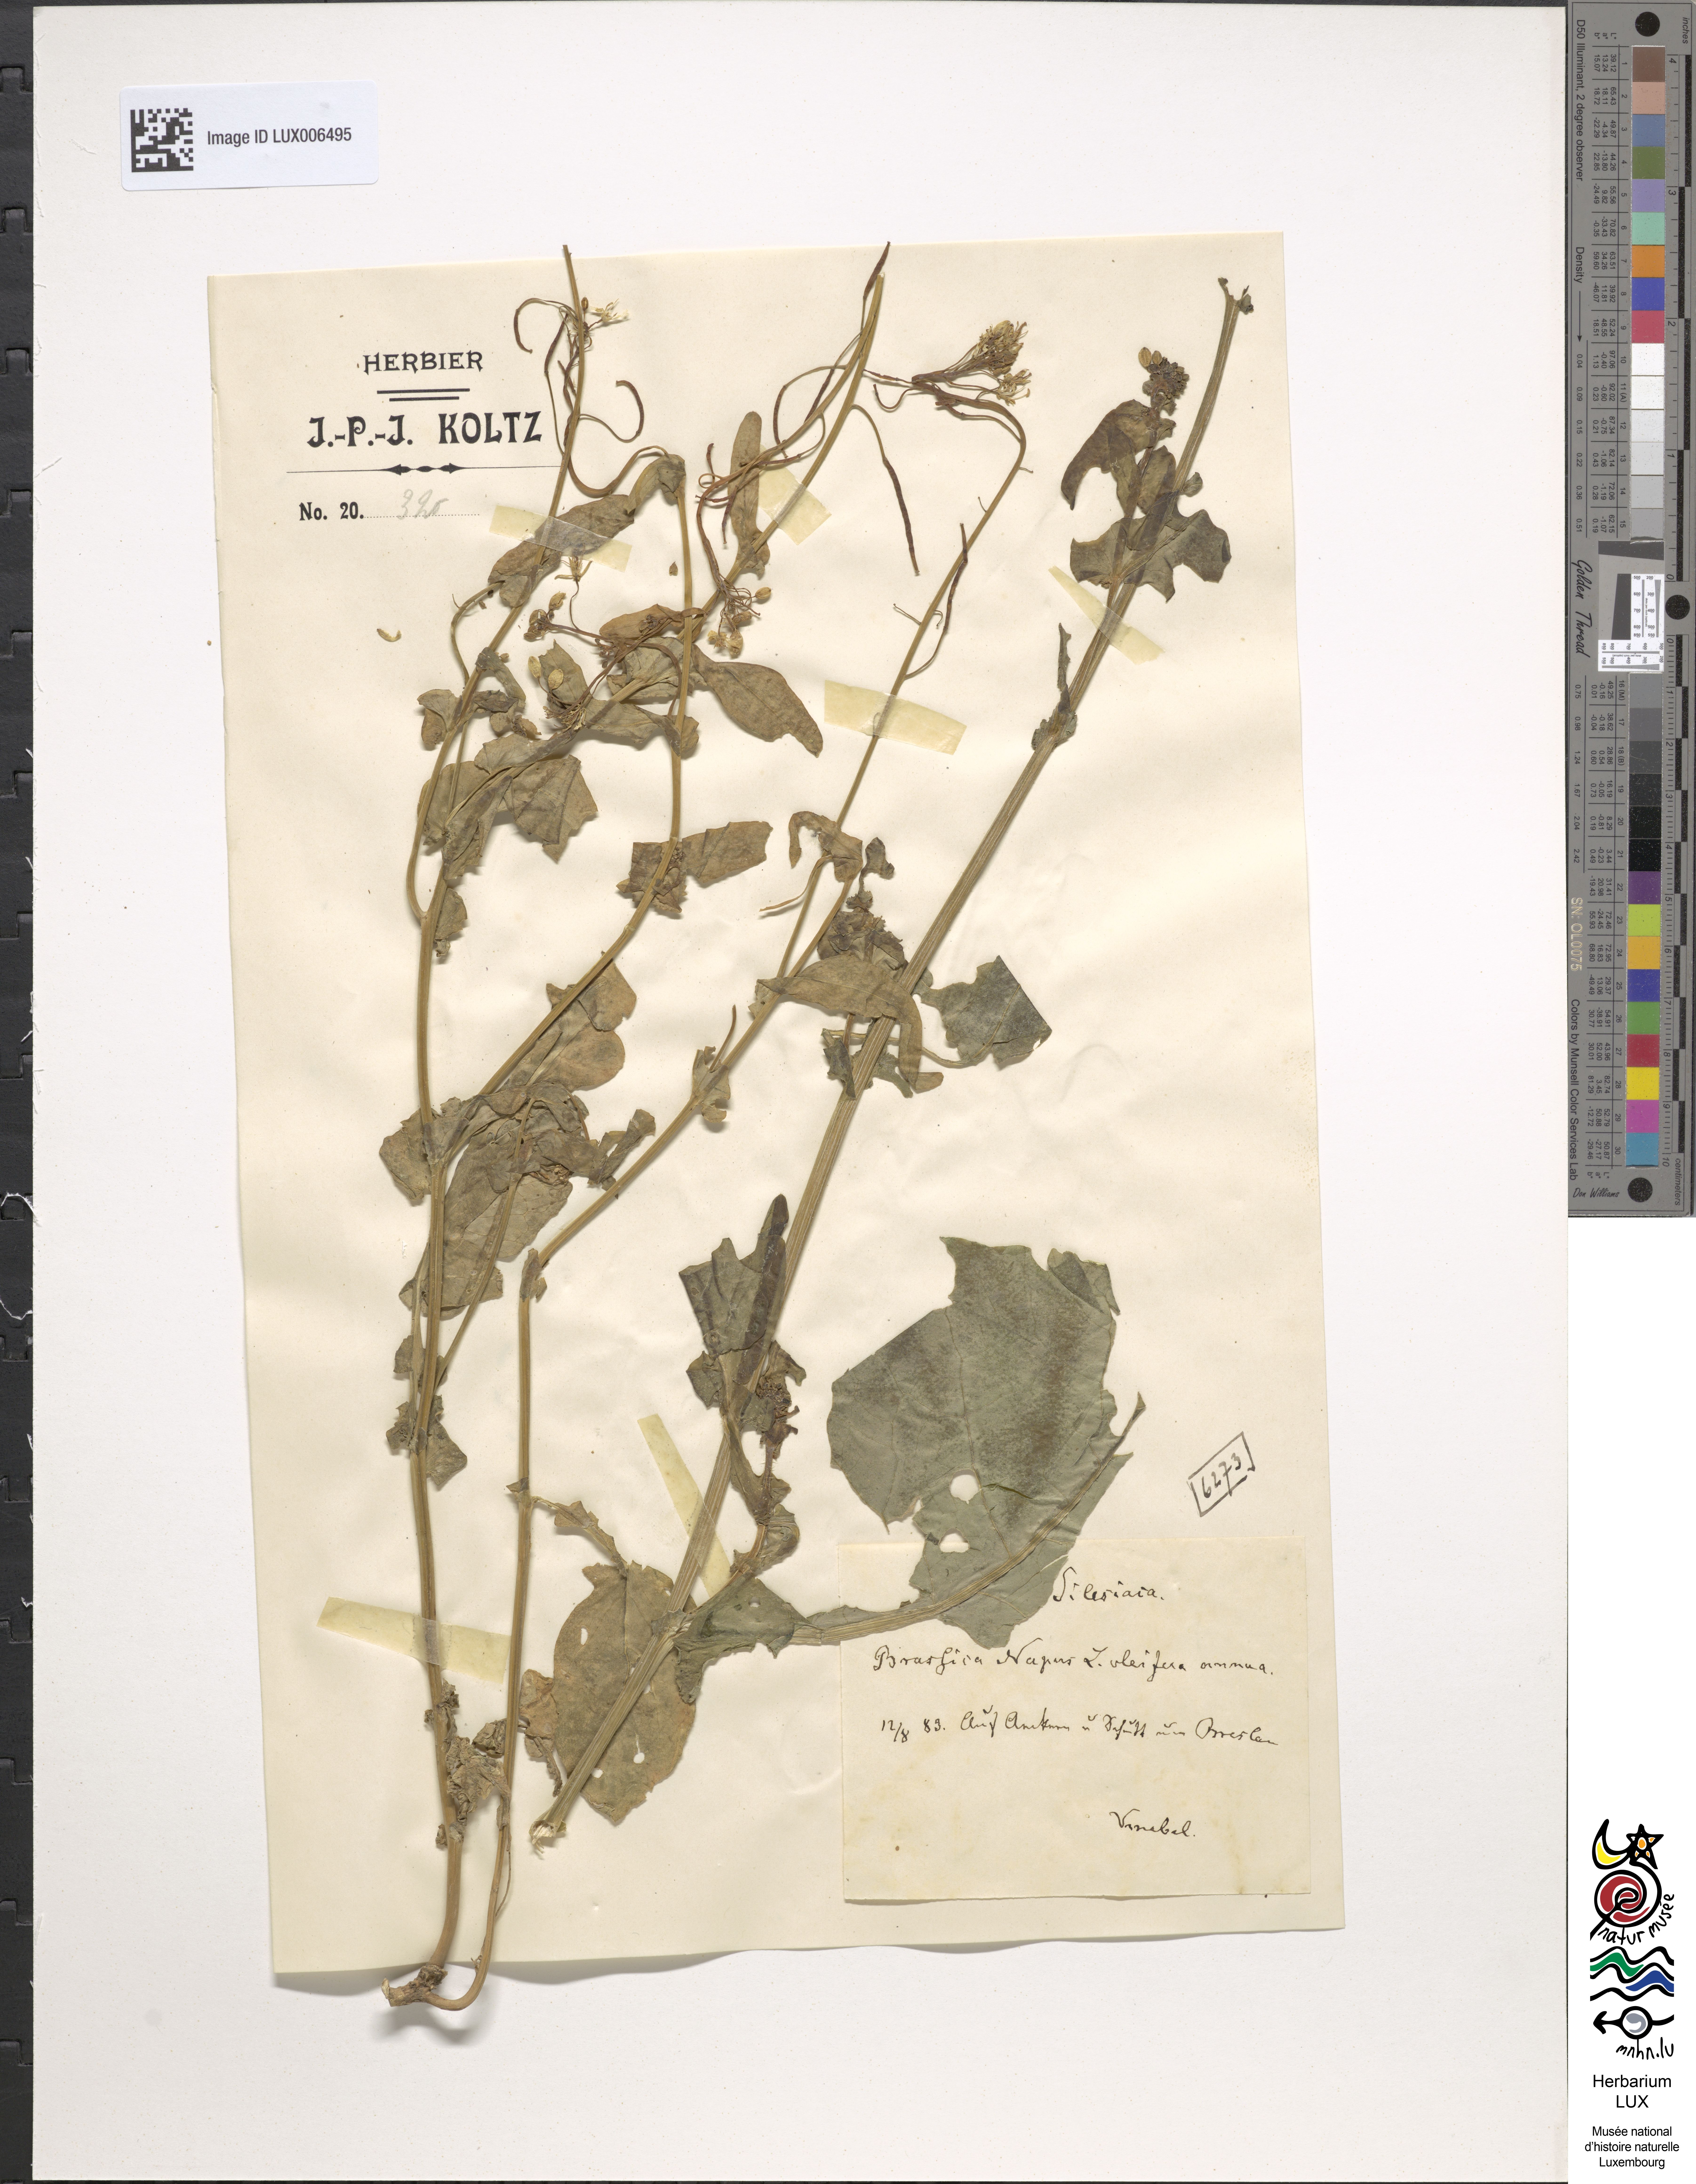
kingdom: Plantae
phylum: Tracheophyta
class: Magnoliopsida
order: Brassicales
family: Brassicaceae
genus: Brassica
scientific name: Brassica napus
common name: Rape
